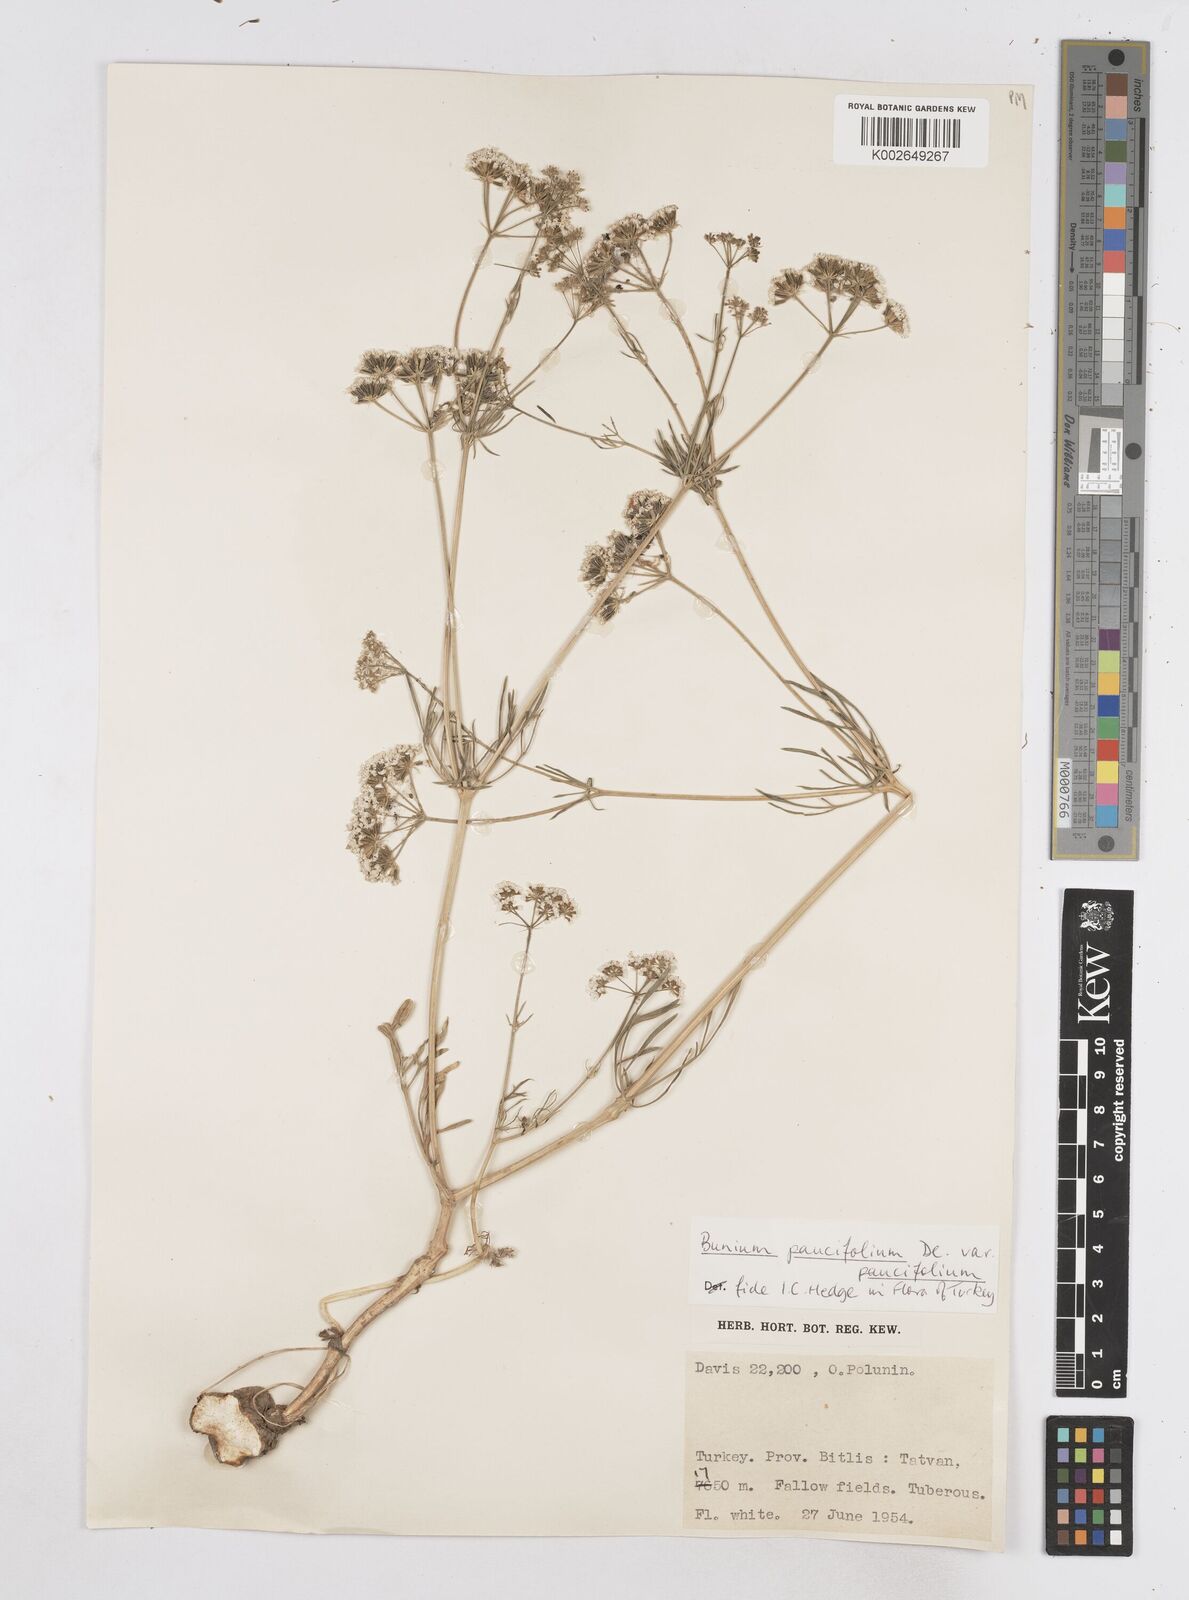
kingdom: Plantae
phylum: Tracheophyta
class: Magnoliopsida
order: Apiales
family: Apiaceae
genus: Bunium
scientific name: Bunium
